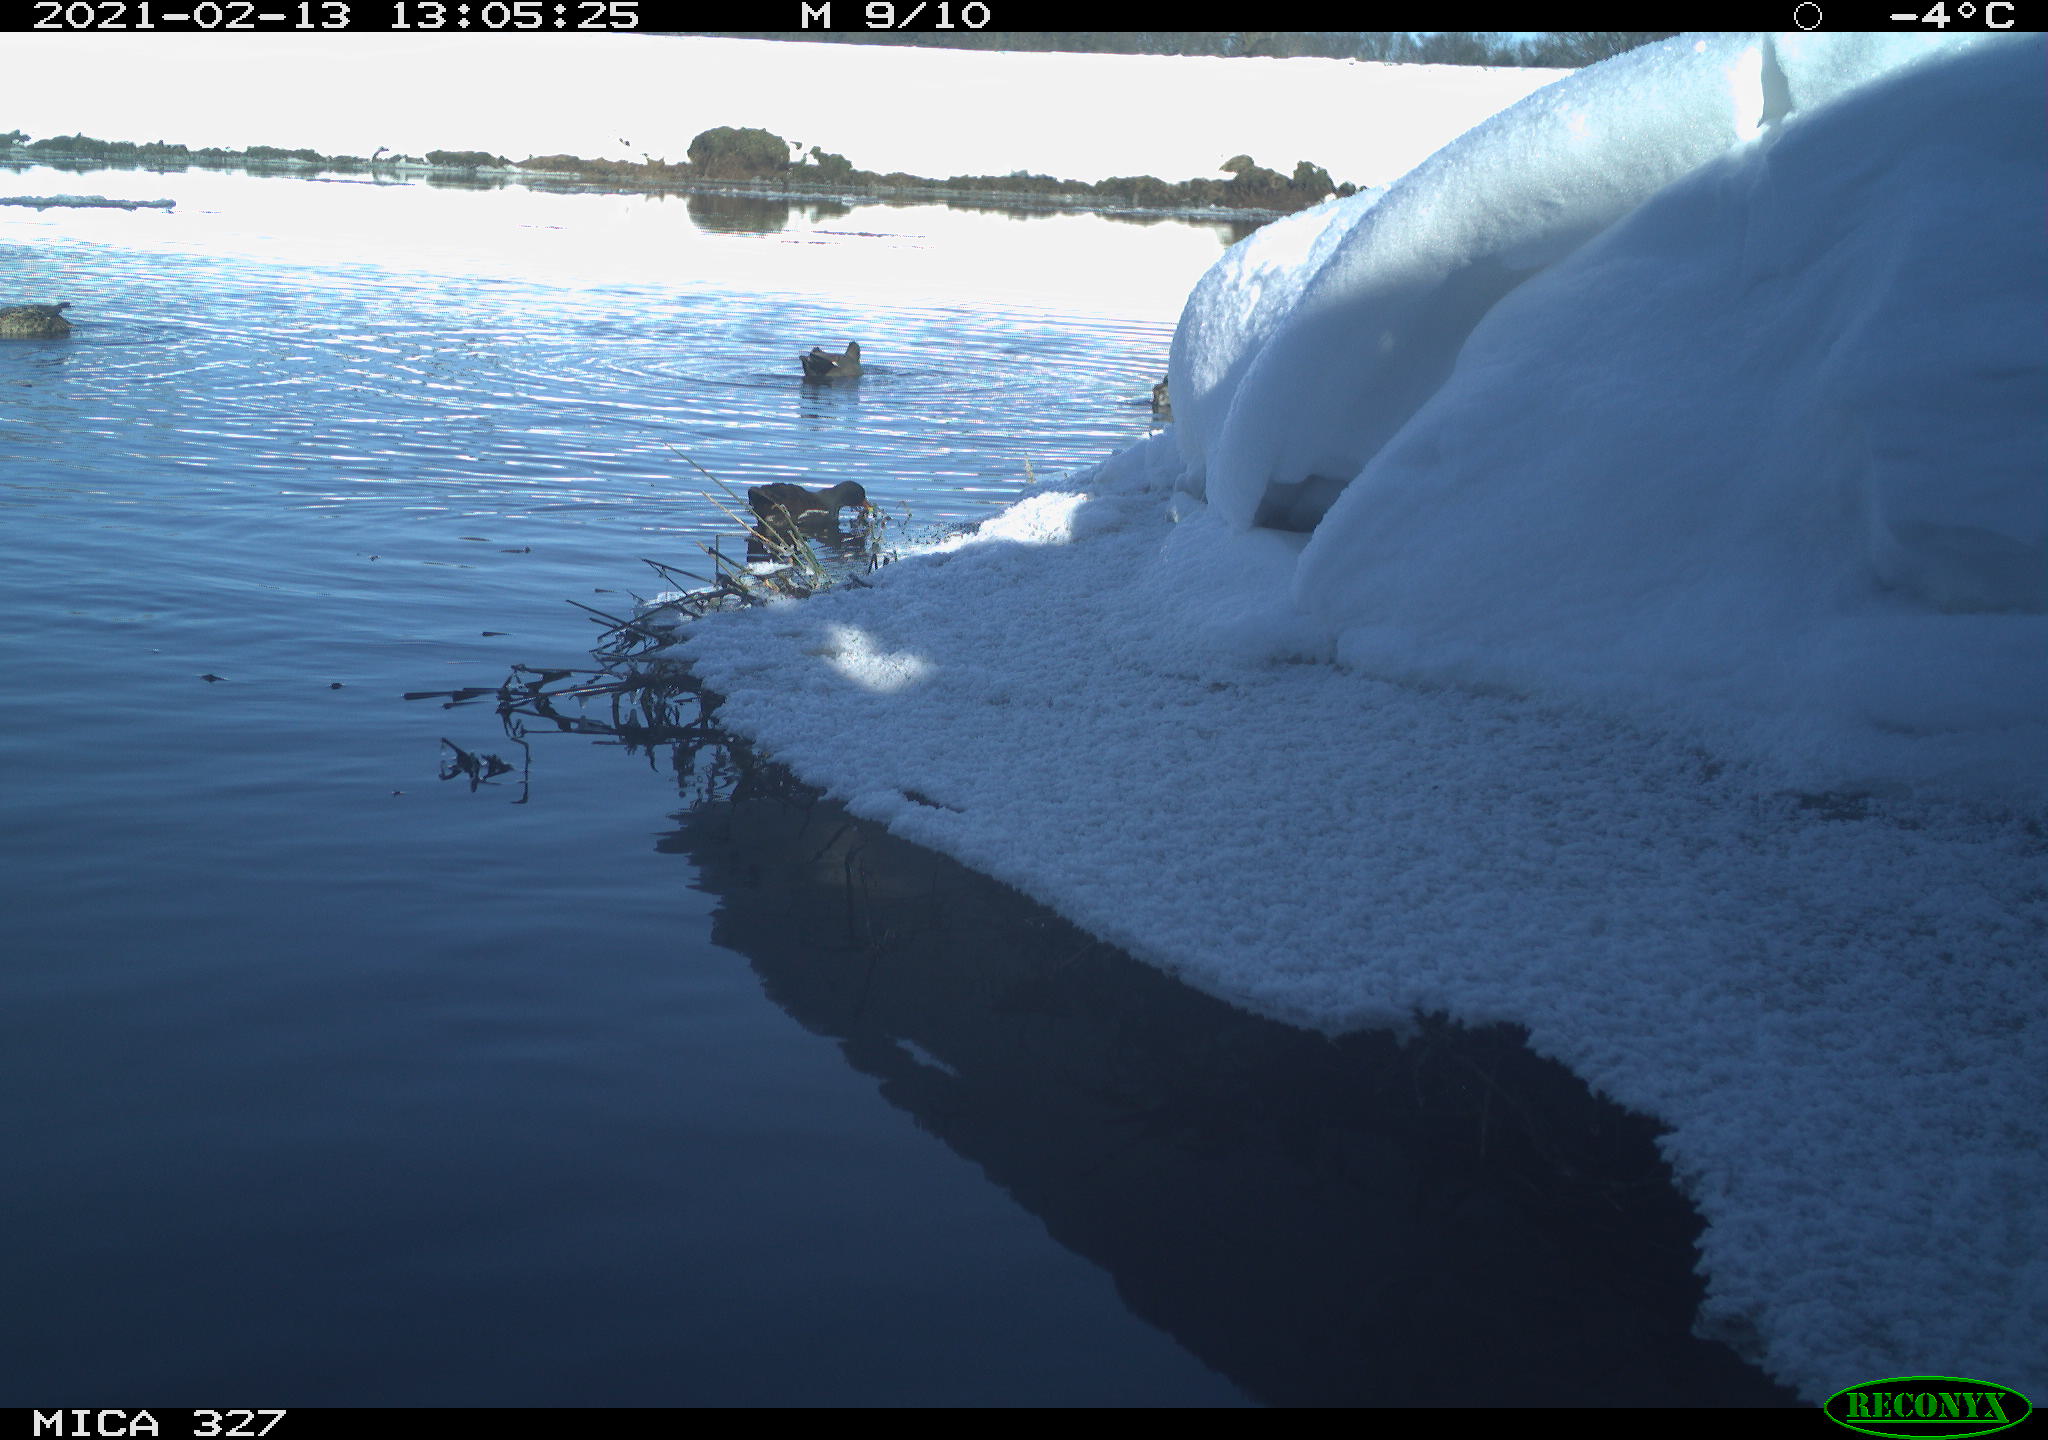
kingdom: Animalia
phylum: Chordata
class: Aves
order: Gruiformes
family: Rallidae
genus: Gallinula
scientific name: Gallinula chloropus
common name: Common moorhen
